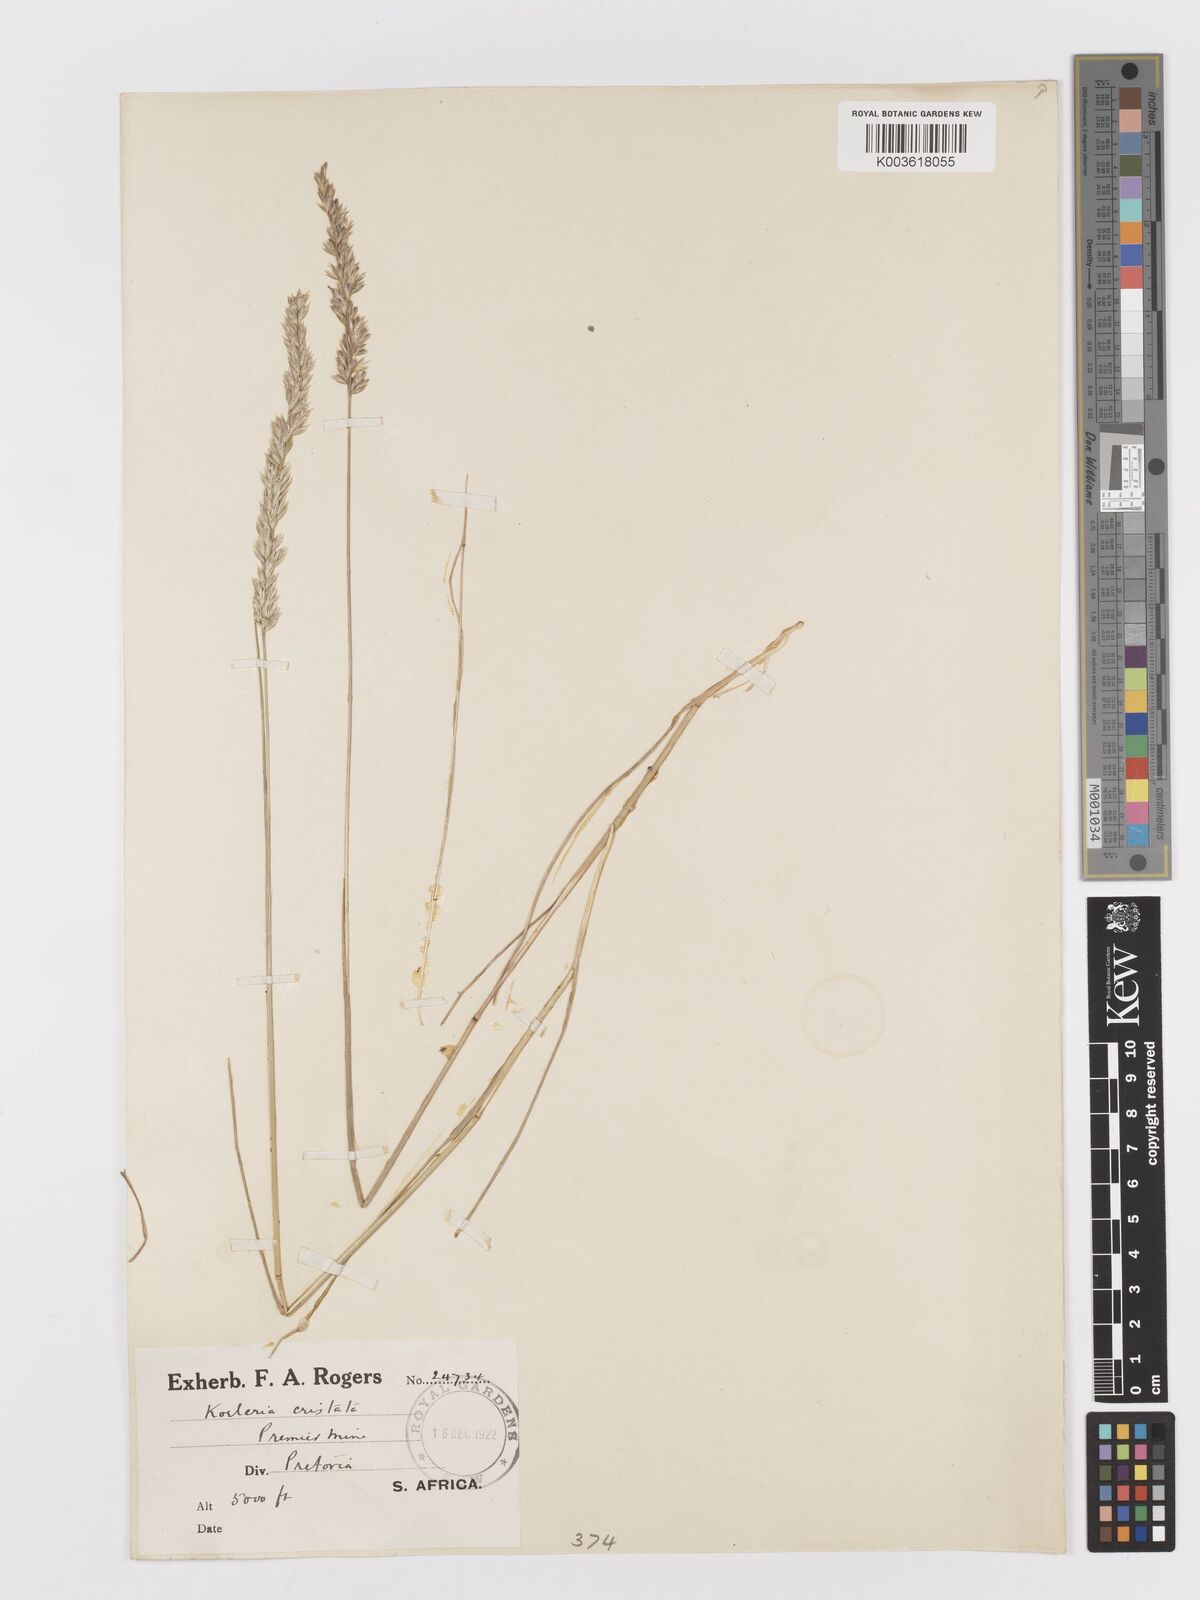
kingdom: Plantae
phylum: Tracheophyta
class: Liliopsida
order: Poales
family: Poaceae
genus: Koeleria
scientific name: Koeleria capensis
